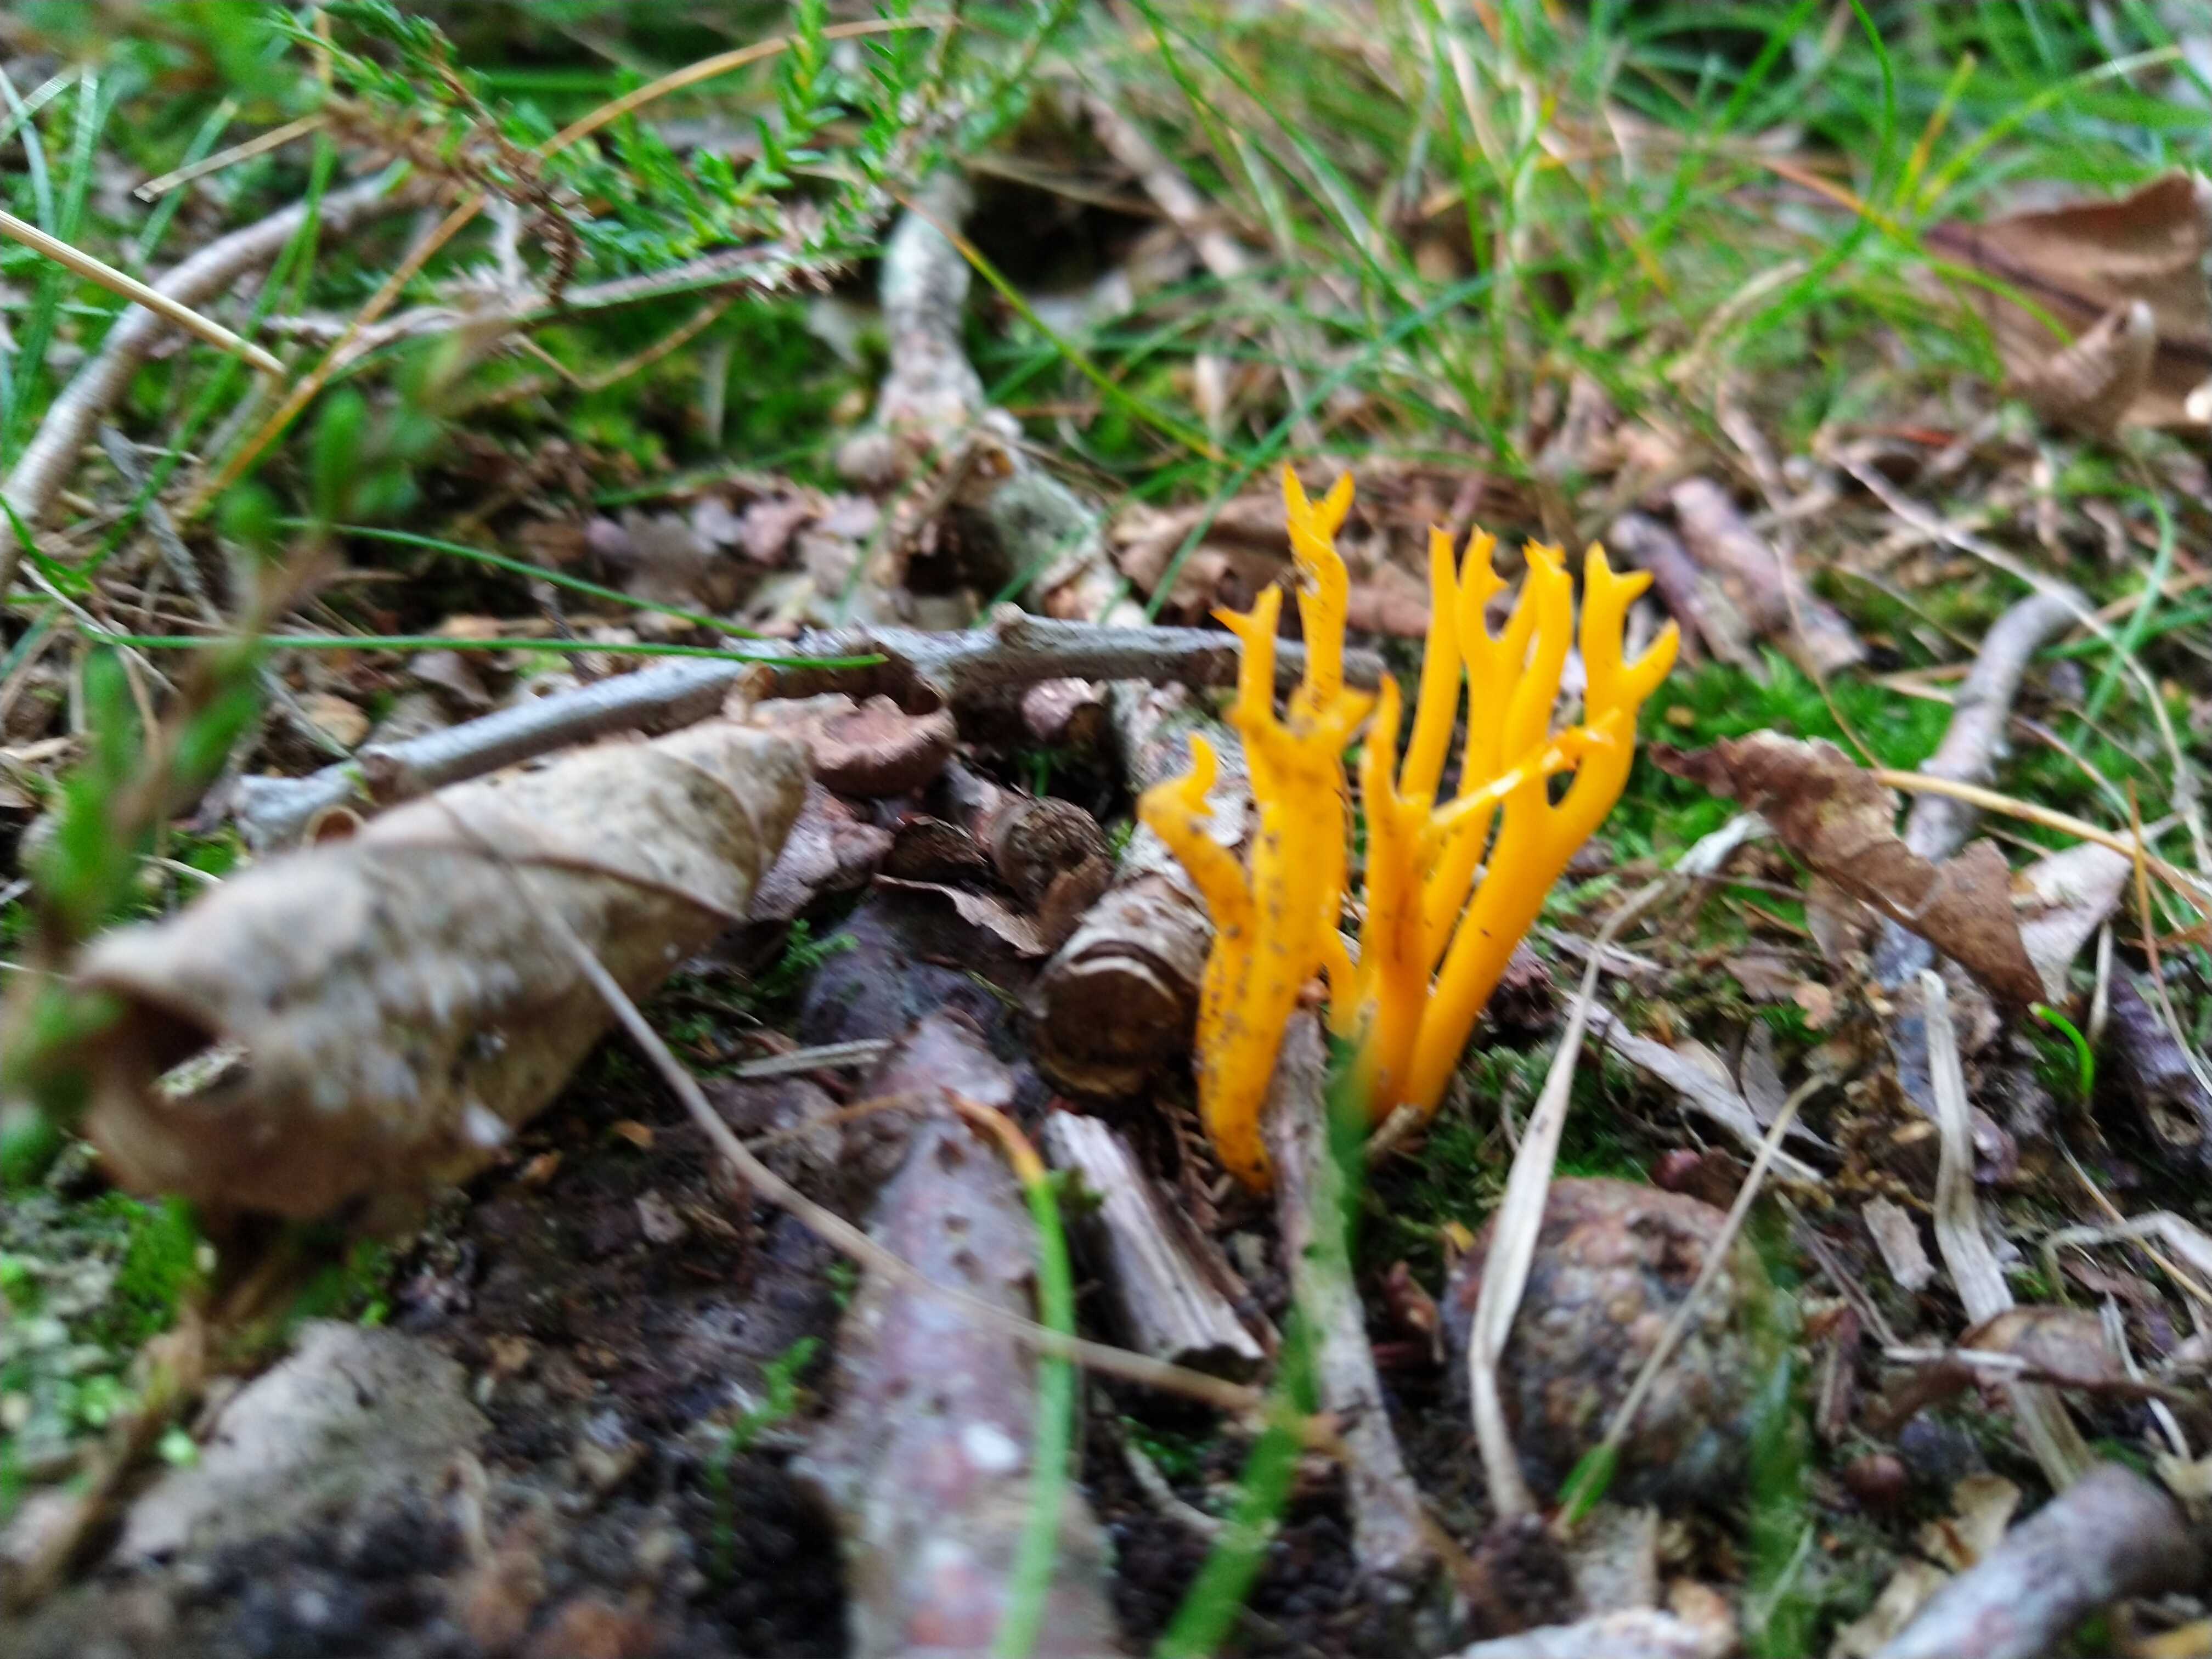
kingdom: Fungi
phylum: Basidiomycota
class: Dacrymycetes
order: Dacrymycetales
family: Dacrymycetaceae
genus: Calocera
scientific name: Calocera viscosa
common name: almindelig guldgaffel
